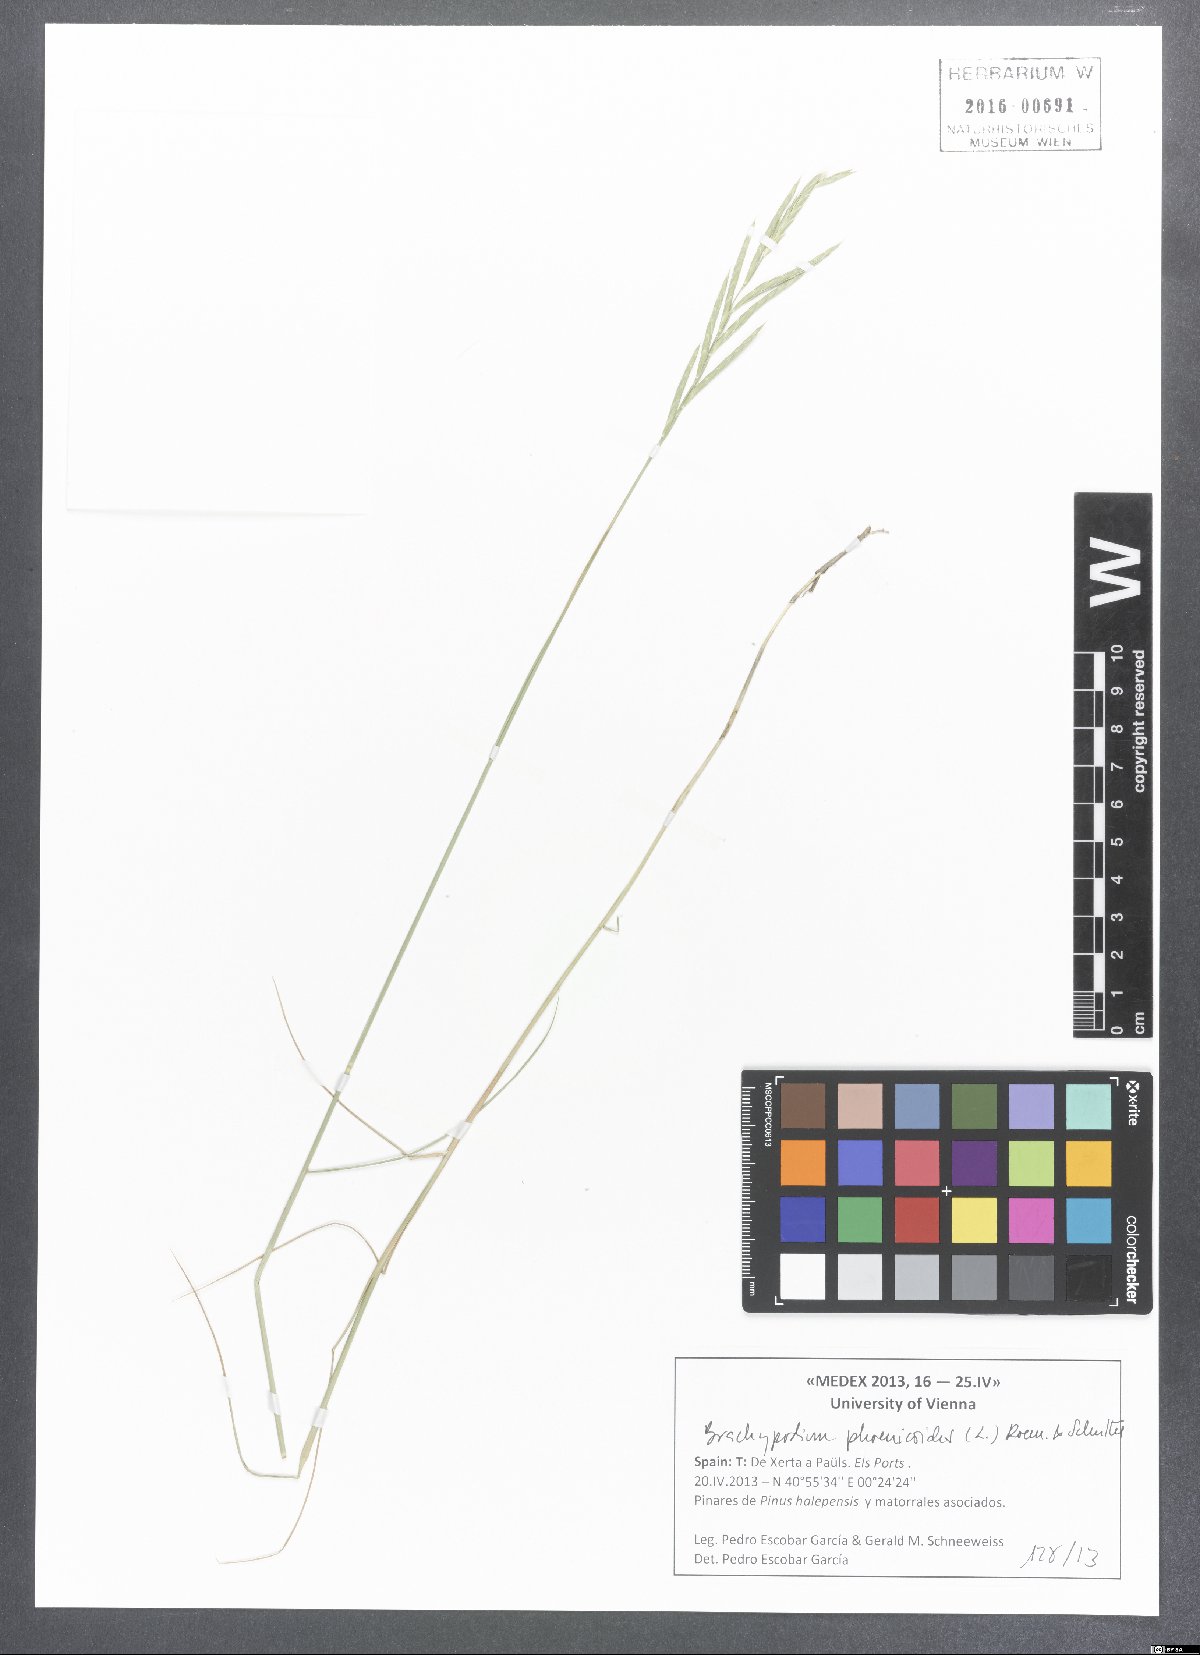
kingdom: Plantae
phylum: Tracheophyta
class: Liliopsida
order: Poales
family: Poaceae
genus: Brachypodium
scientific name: Brachypodium phoenicoides
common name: Thinleaf false brome
